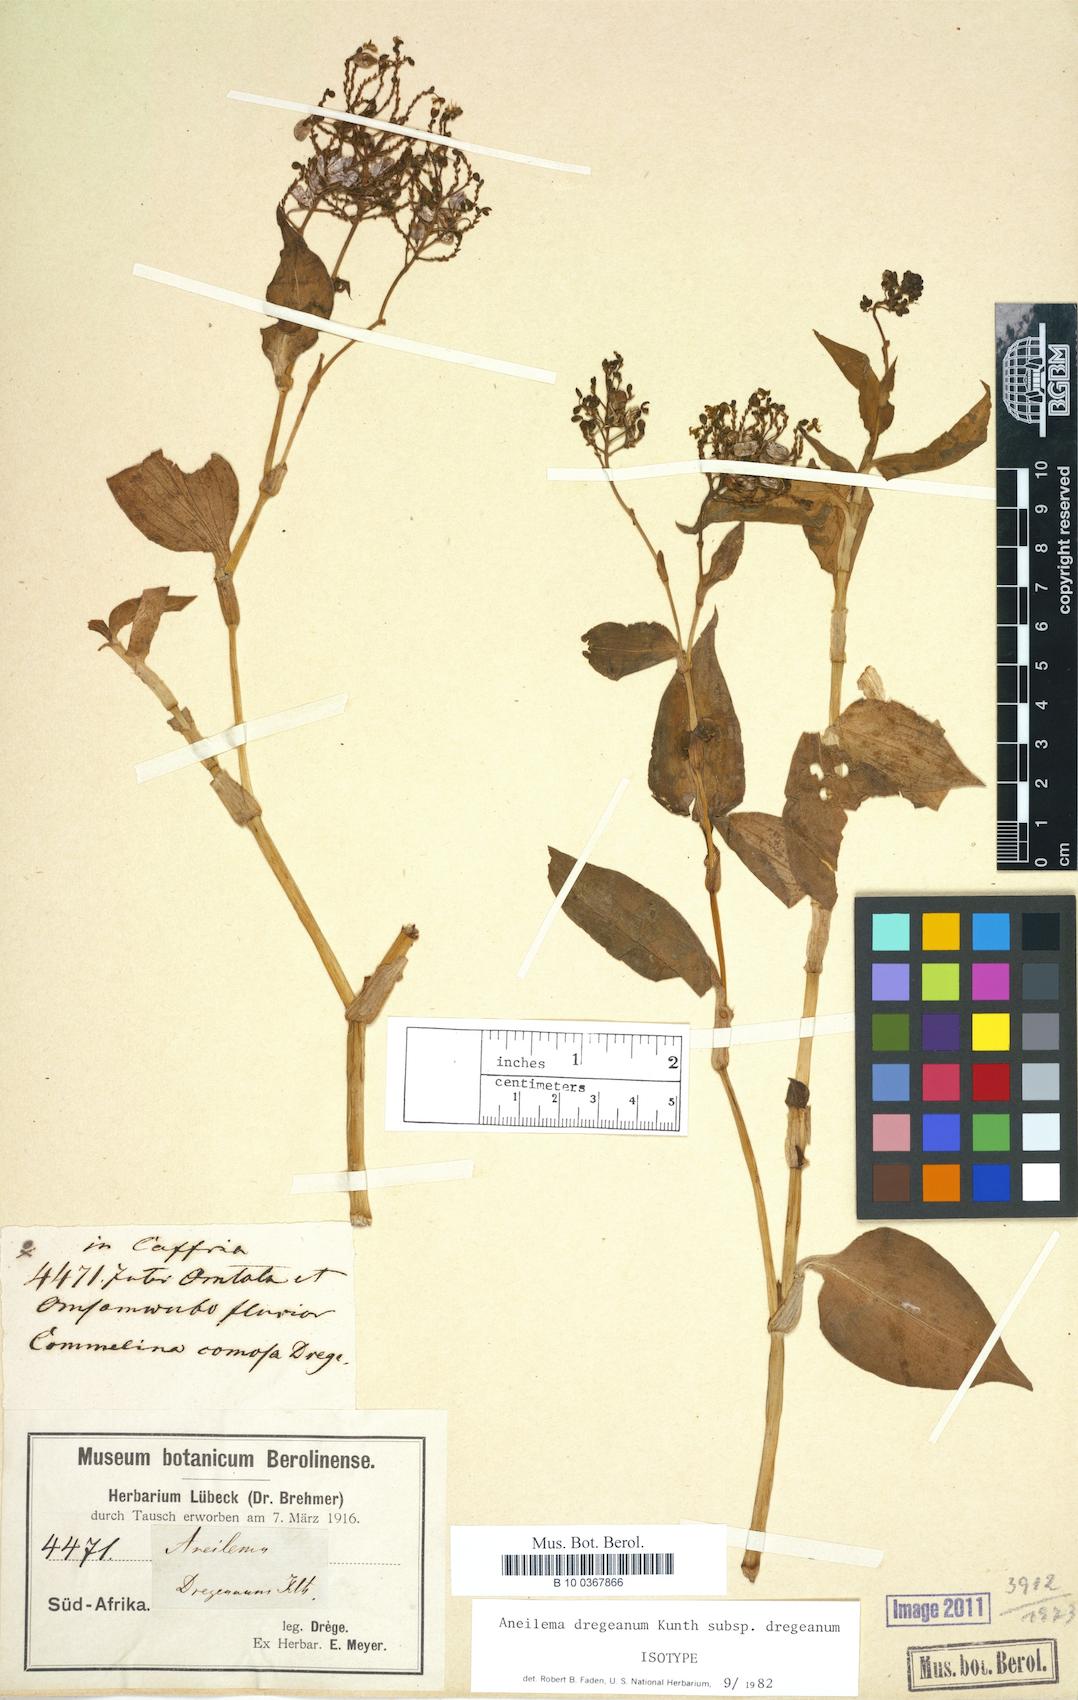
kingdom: Plantae
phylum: Tracheophyta
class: Liliopsida
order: Commelinales
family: Commelinaceae
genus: Aneilema
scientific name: Aneilema dregeanum
